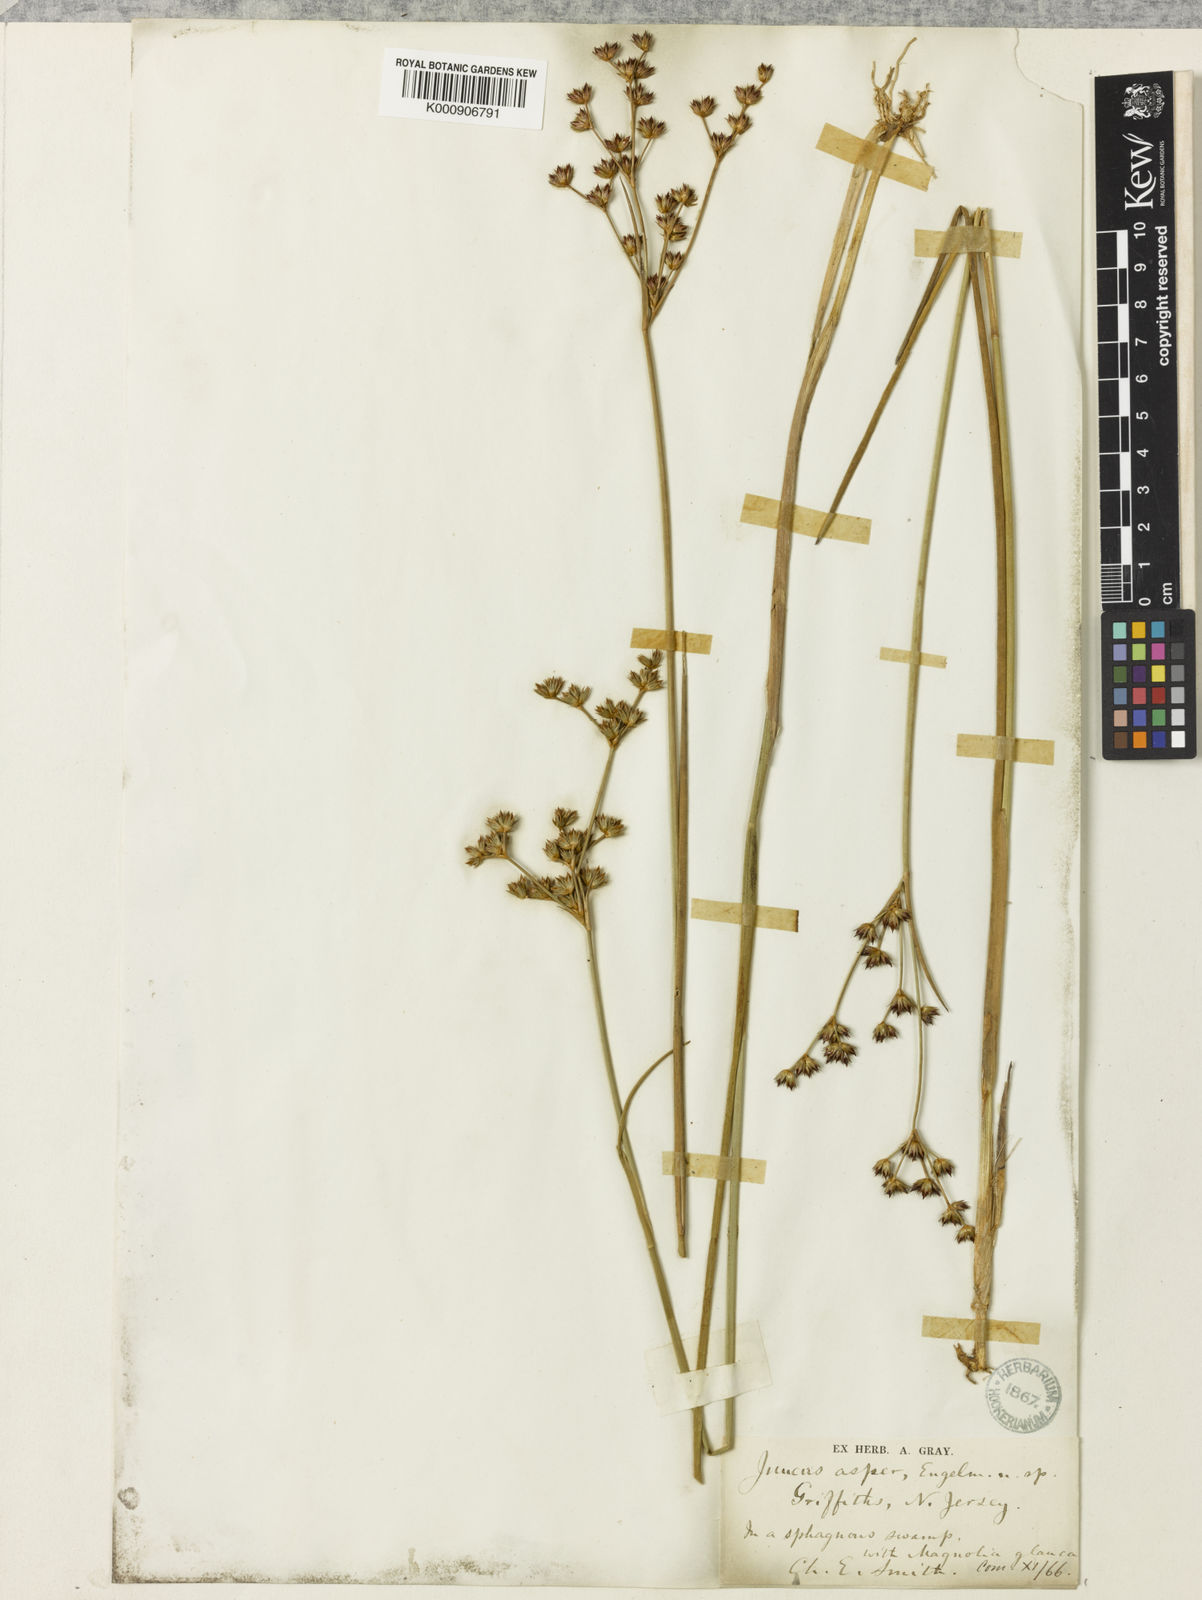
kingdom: Plantae
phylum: Tracheophyta
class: Liliopsida
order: Poales
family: Juncaceae
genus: Juncus
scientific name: Juncus caesariensis
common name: New jersey rush
